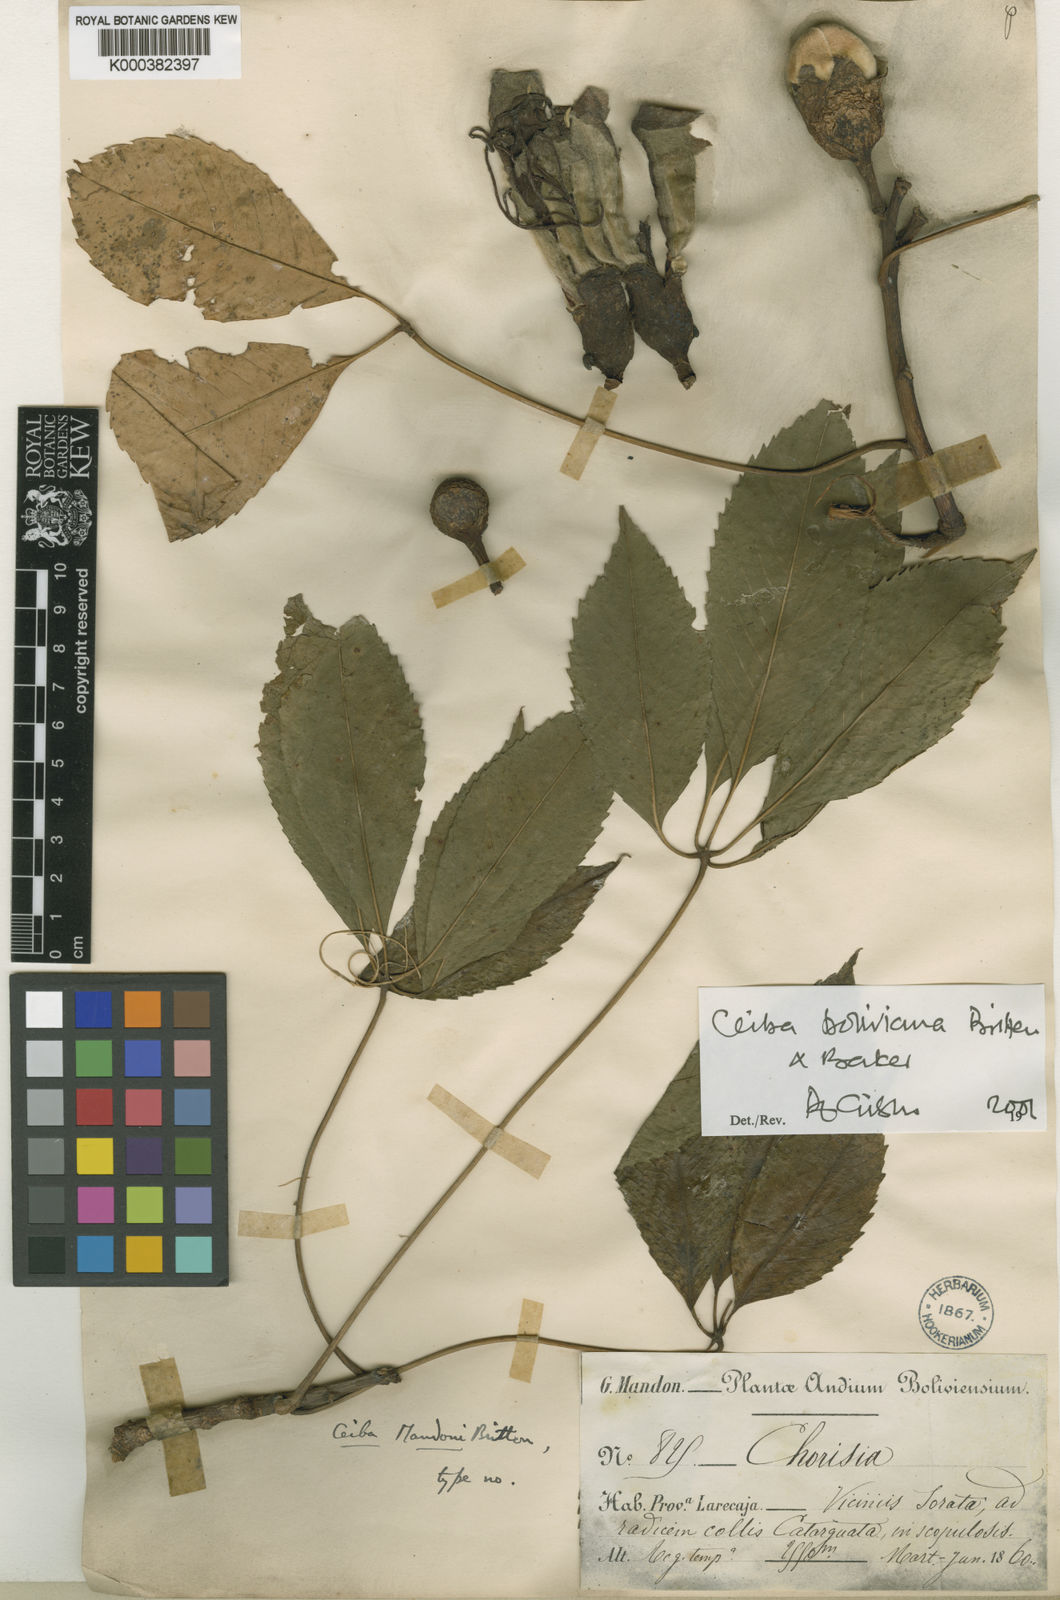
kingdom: Plantae
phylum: Tracheophyta
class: Magnoliopsida
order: Malvales
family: Malvaceae
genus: Ceiba
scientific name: Ceiba boliviana
